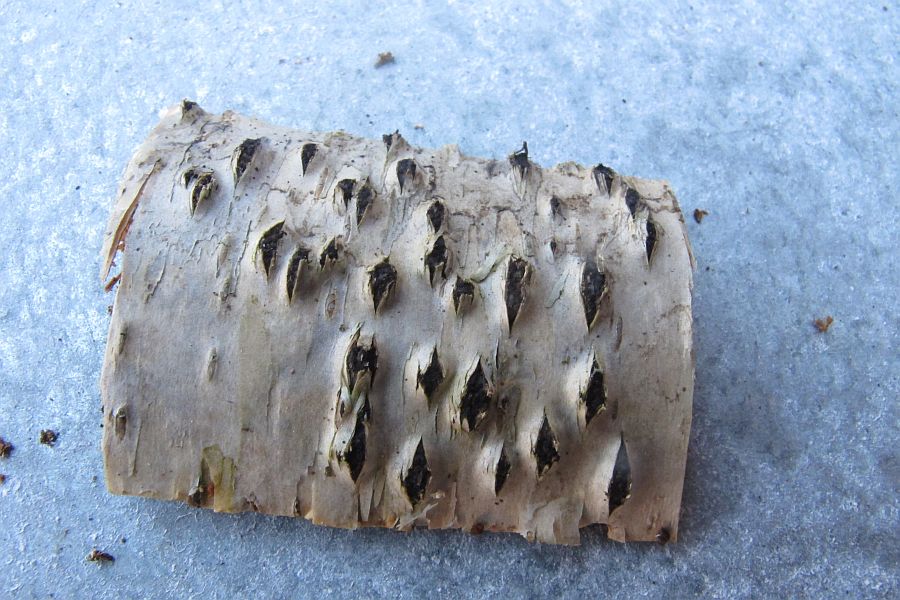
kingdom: Fungi
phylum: Ascomycota
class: Sordariomycetes
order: Xylariales
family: Diatrypaceae
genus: Diatrypella
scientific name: Diatrypella favacea
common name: Birch blackhead
